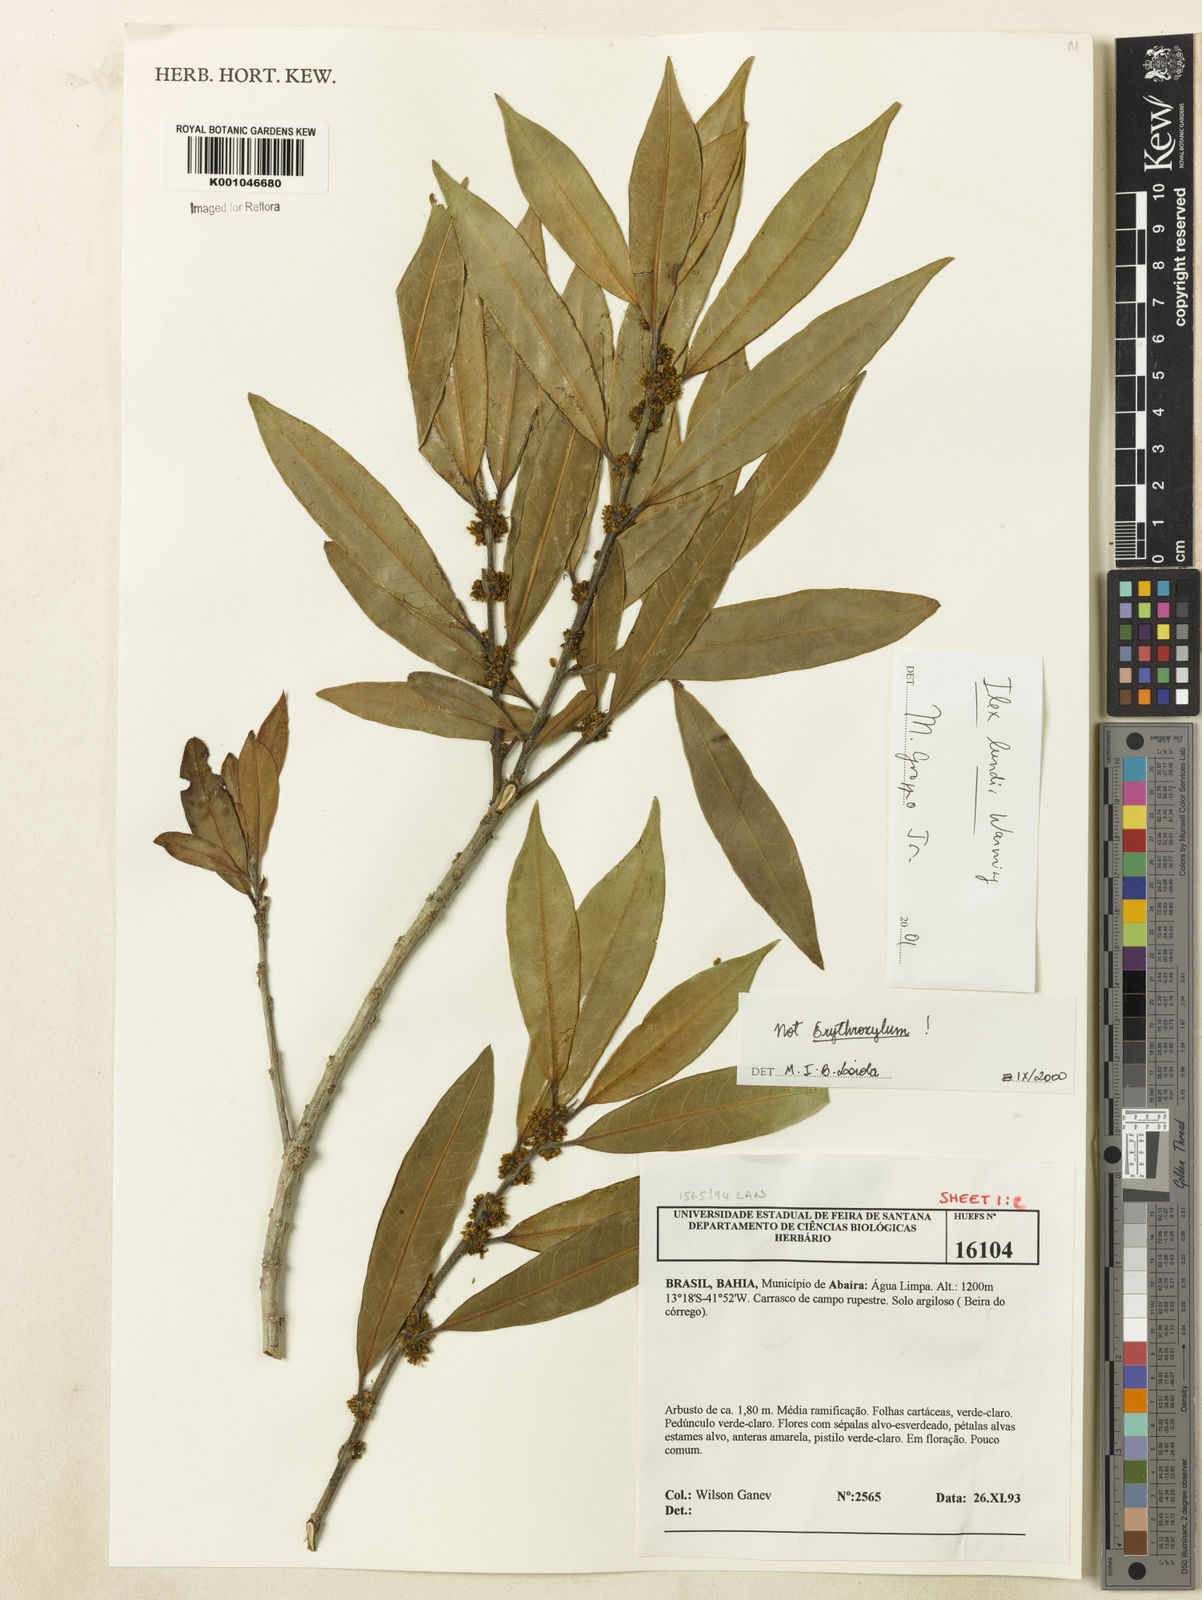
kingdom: Plantae
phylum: Tracheophyta
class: Magnoliopsida
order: Aquifoliales
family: Aquifoliaceae
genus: Ilex
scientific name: Ilex lundii
